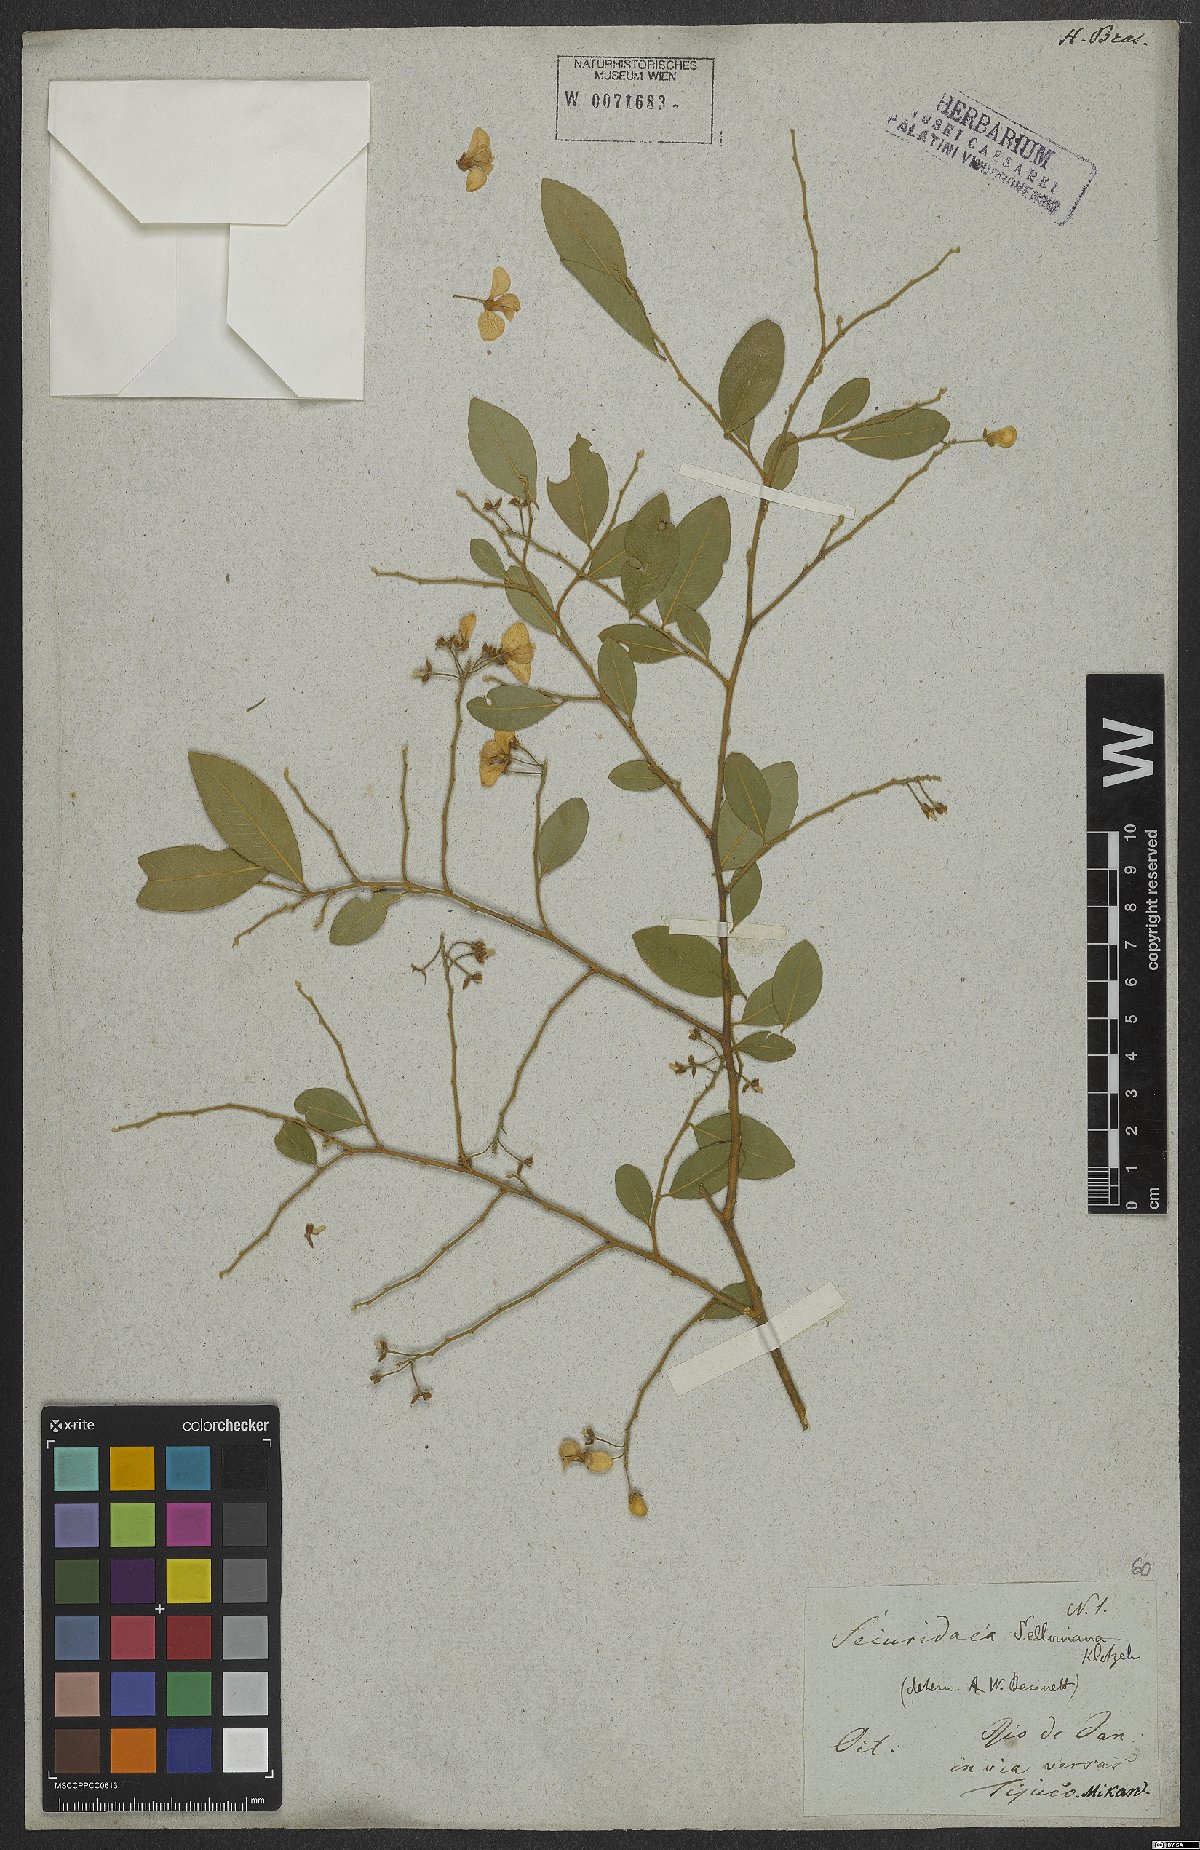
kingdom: Plantae
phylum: Tracheophyta
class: Magnoliopsida
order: Fabales
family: Polygalaceae
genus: Securidaca
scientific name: Securidaca lanceolata
